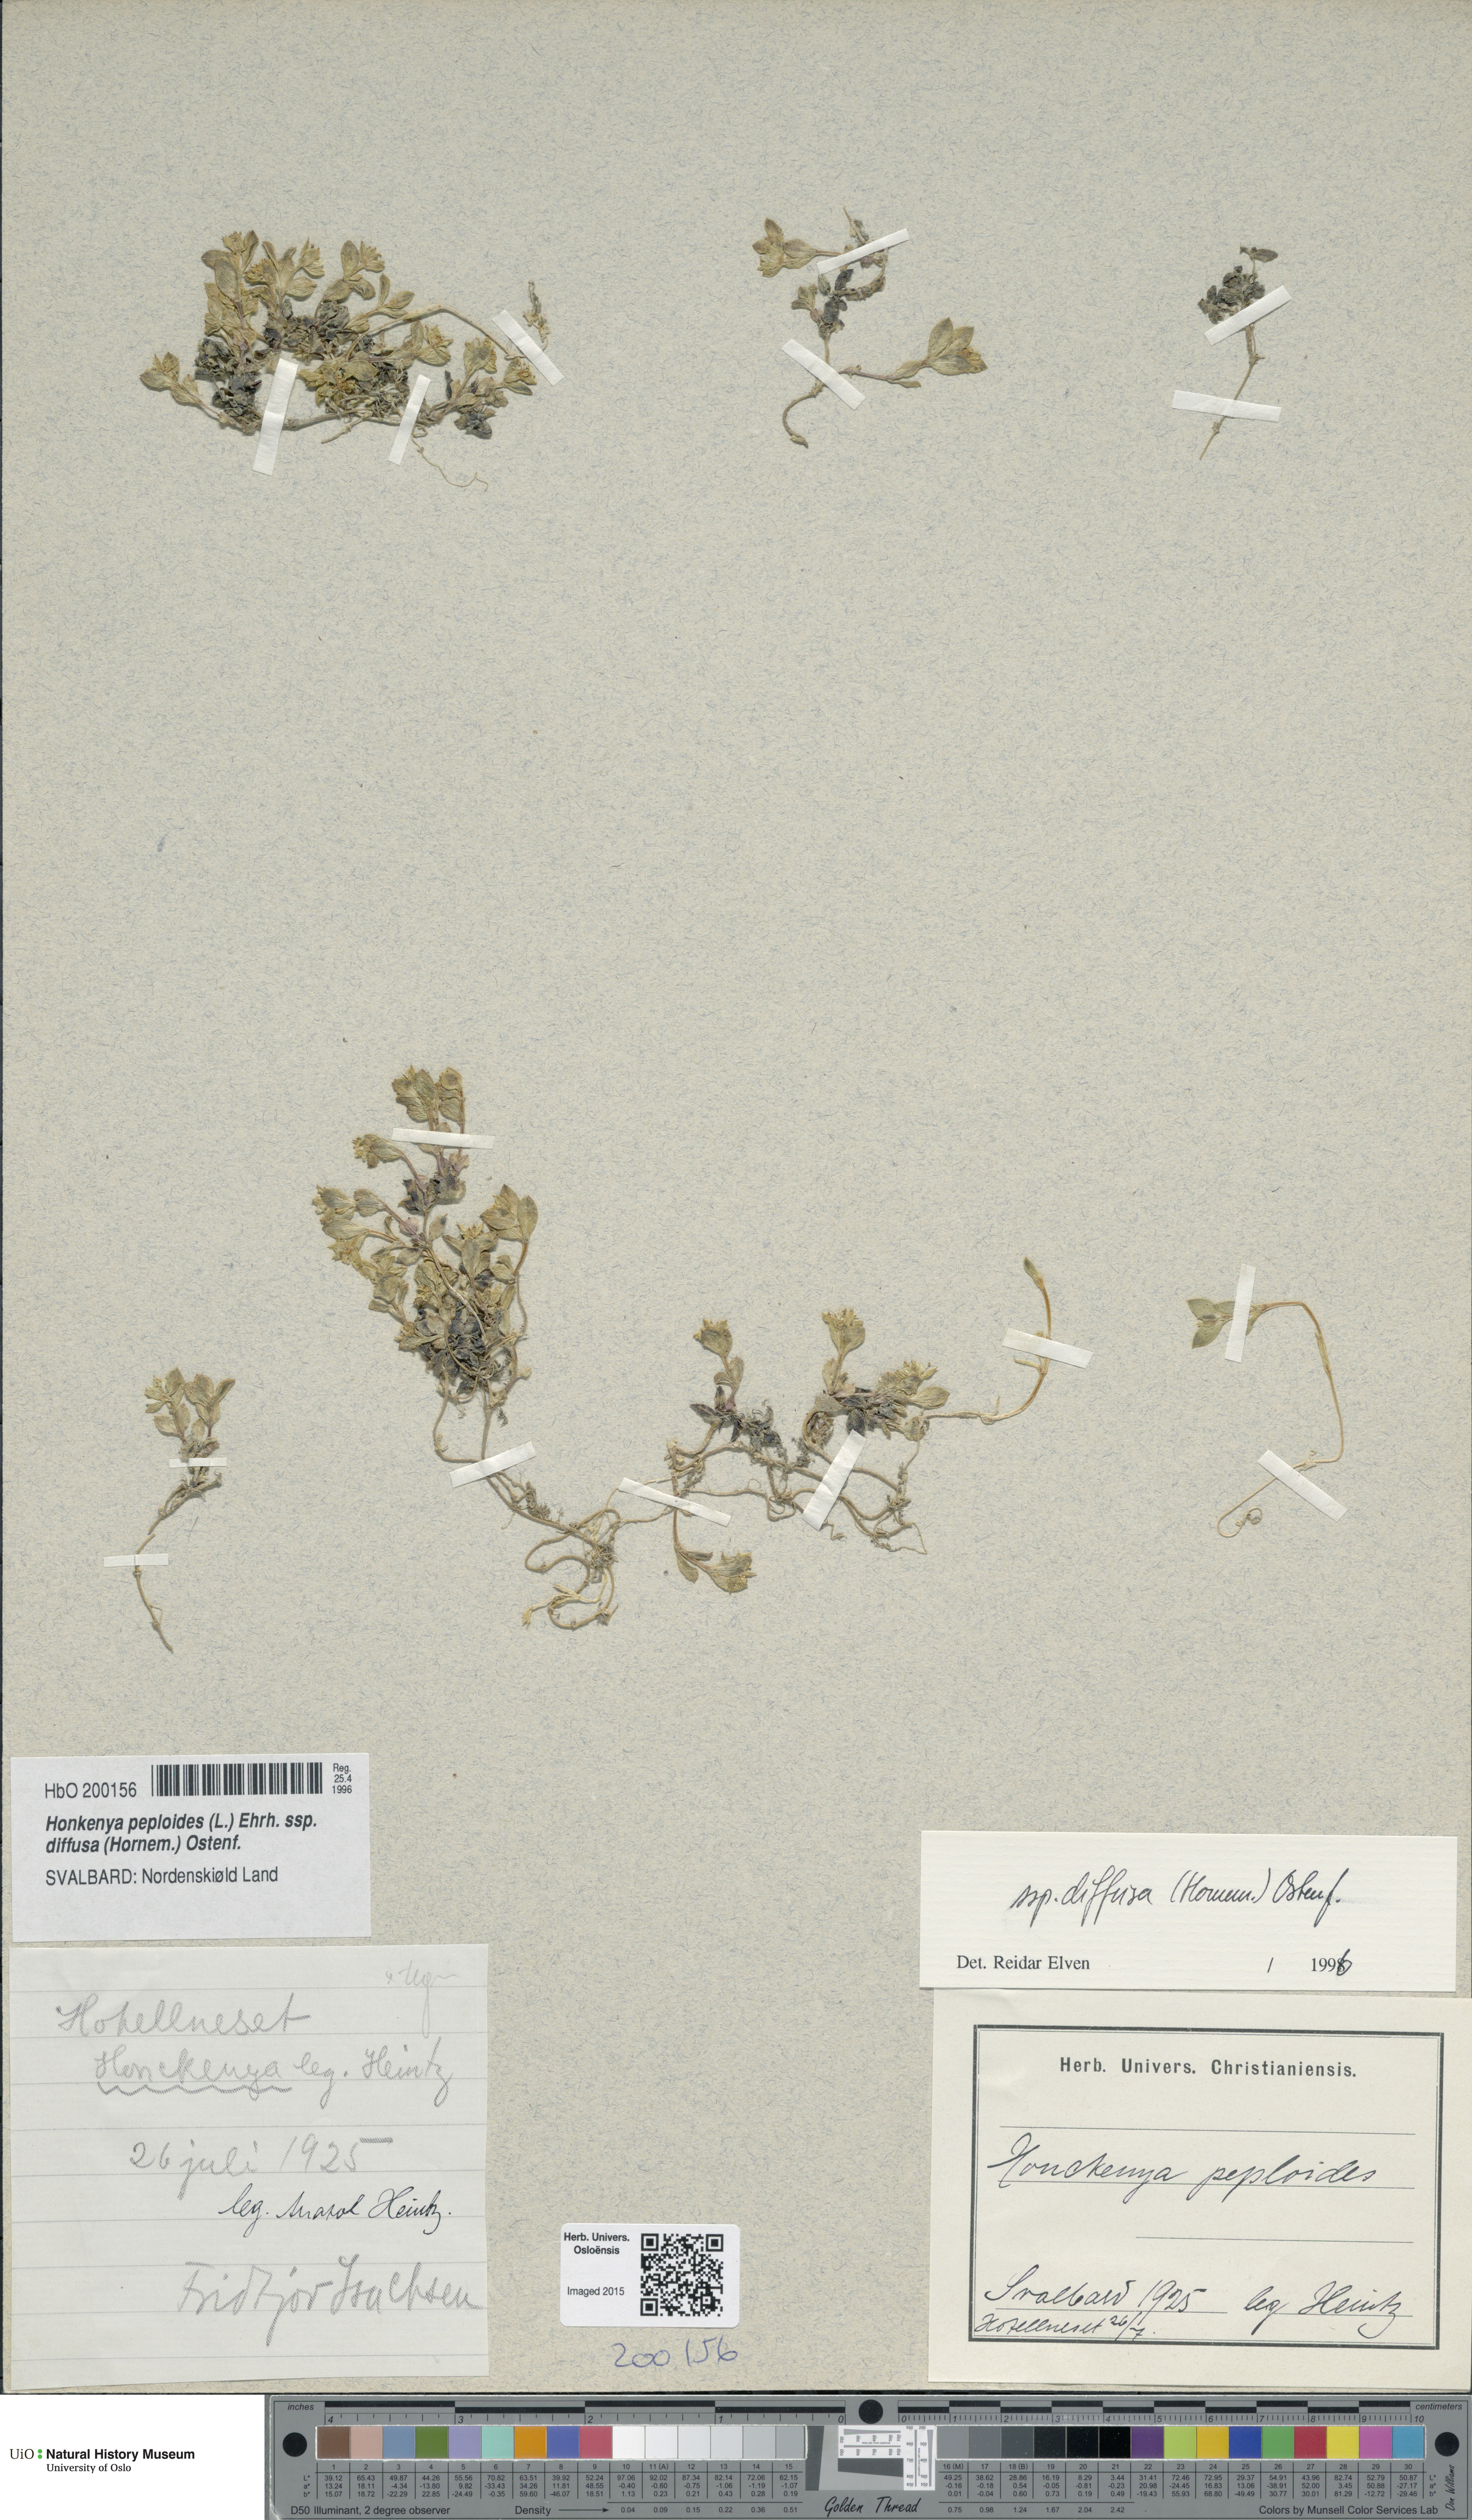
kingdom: Plantae
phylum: Tracheophyta
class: Magnoliopsida
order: Caryophyllales
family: Caryophyllaceae
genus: Honckenya
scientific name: Honckenya peploides
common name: Sea sandwort
